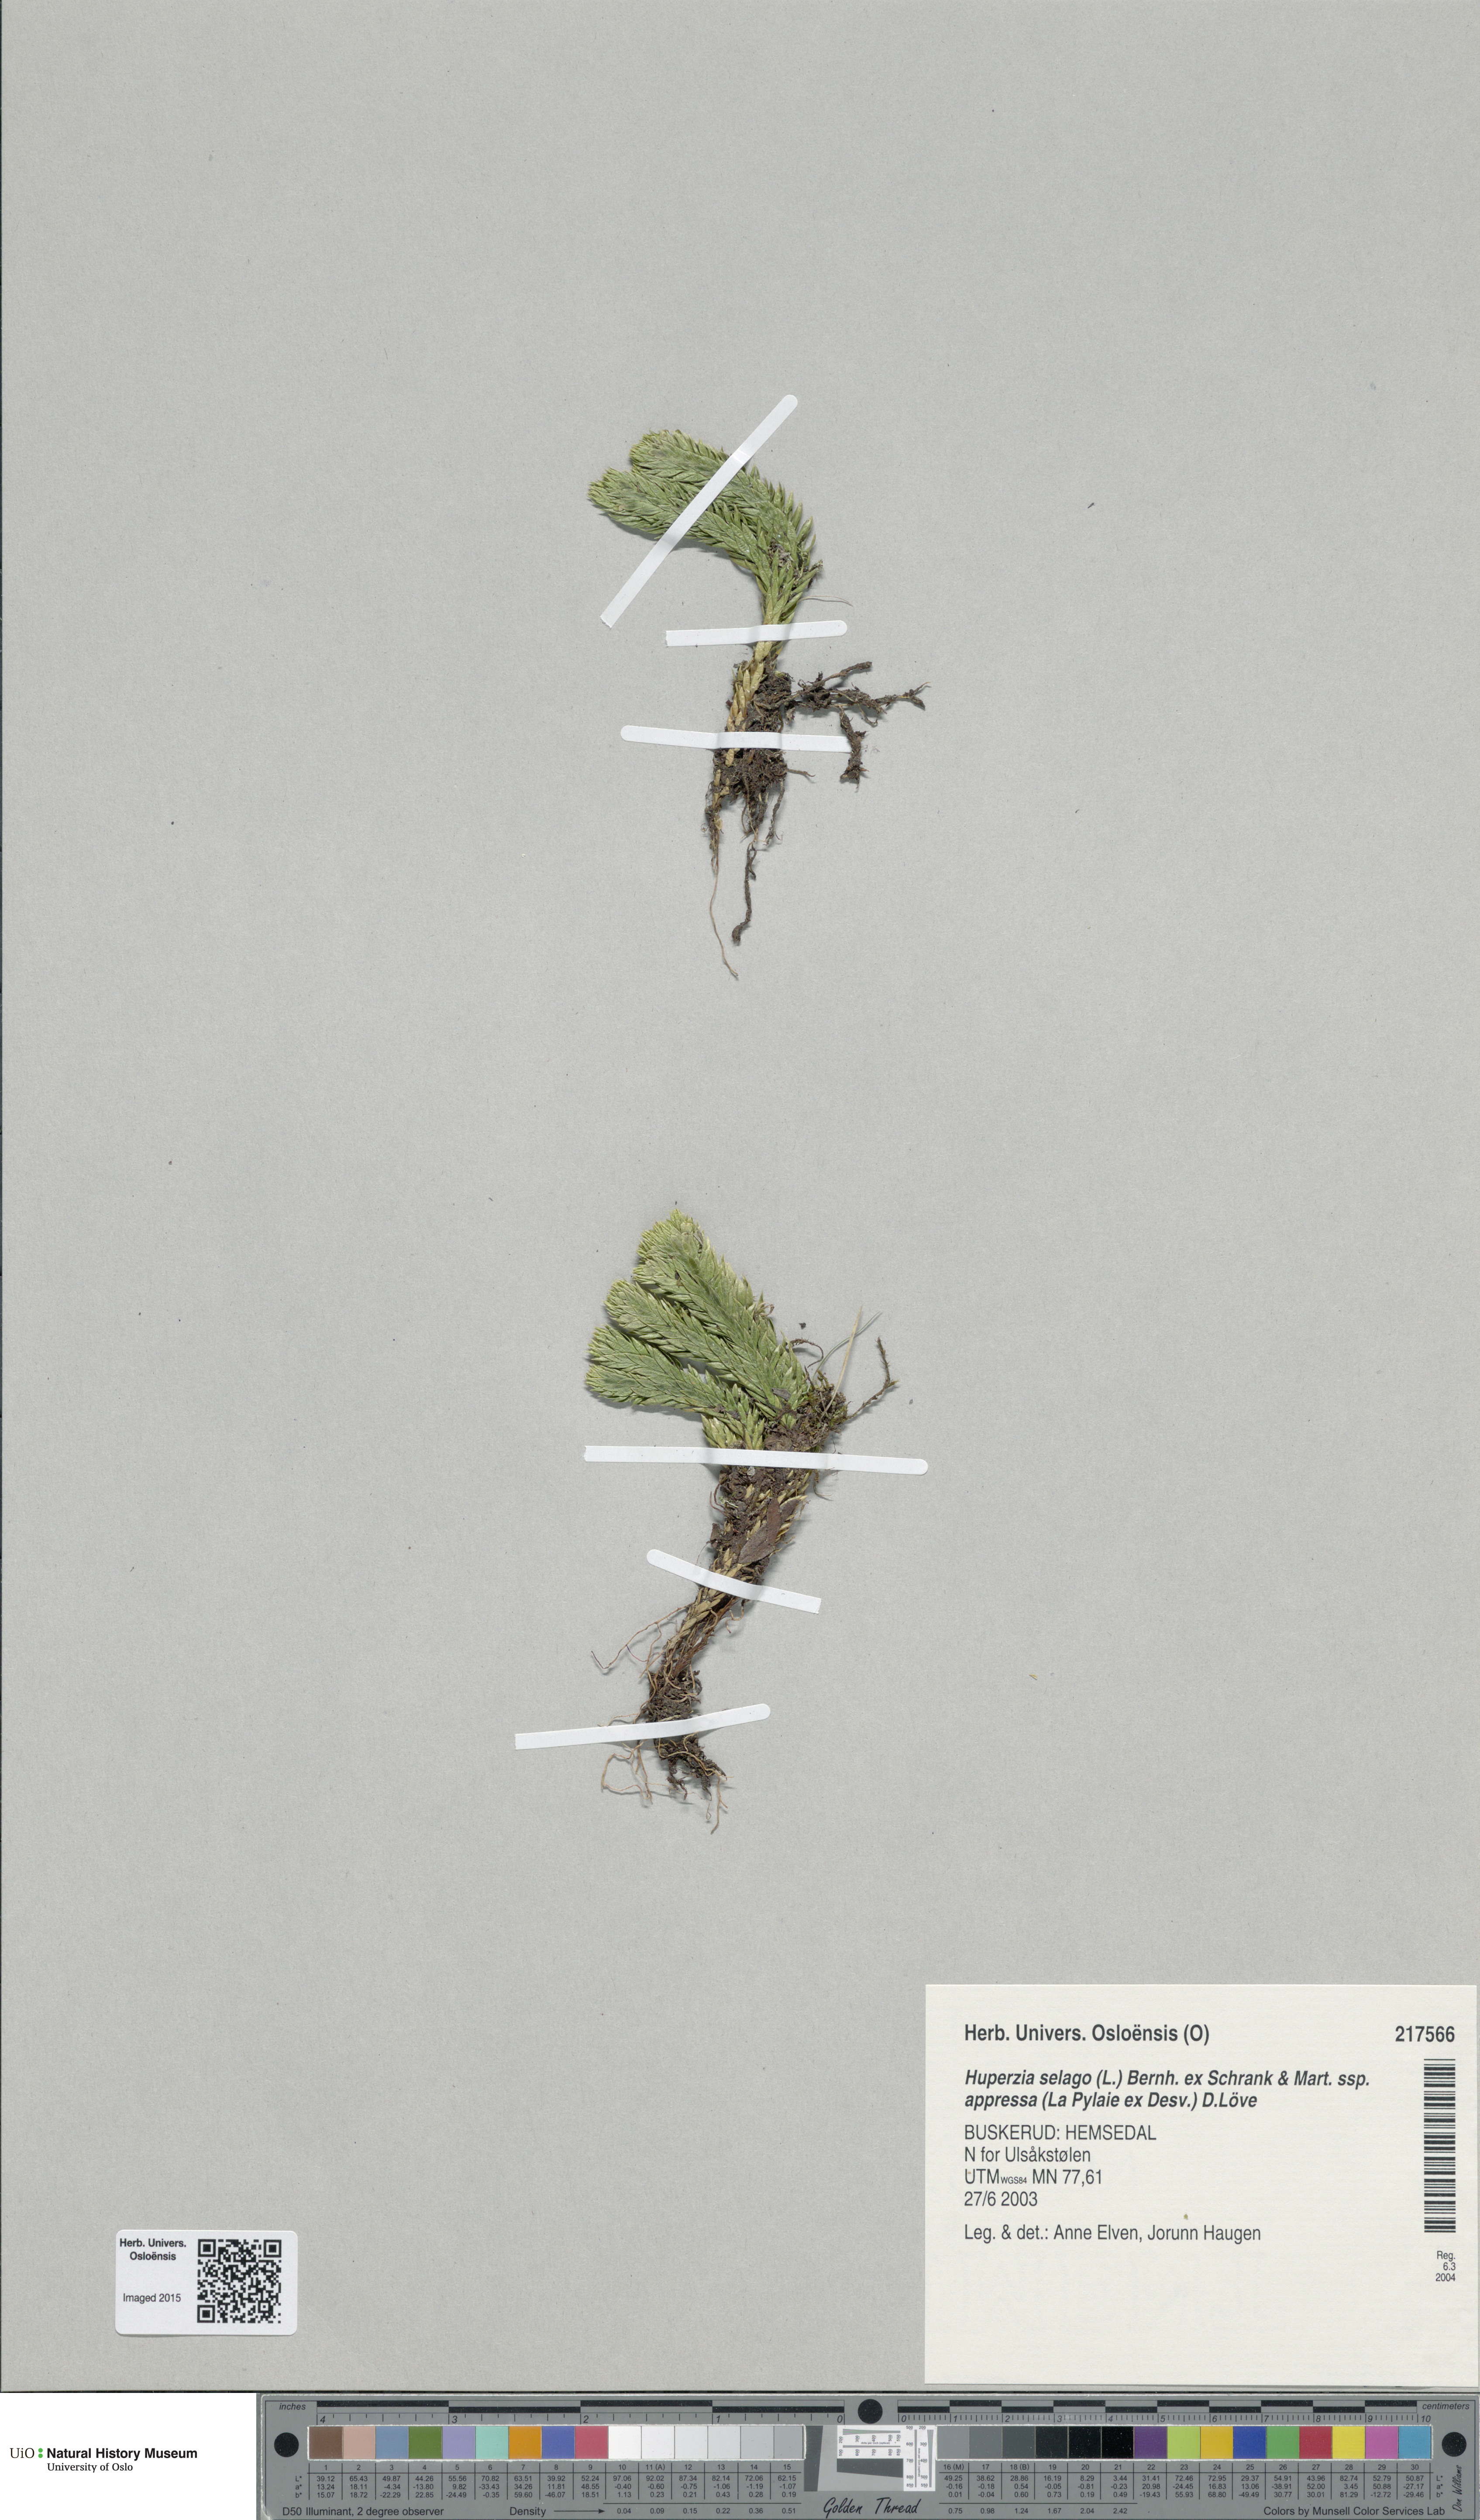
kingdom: Plantae
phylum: Tracheophyta
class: Lycopodiopsida
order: Lycopodiales
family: Lycopodiaceae
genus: Huperzia
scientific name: Huperzia selago
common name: Northern firmoss
